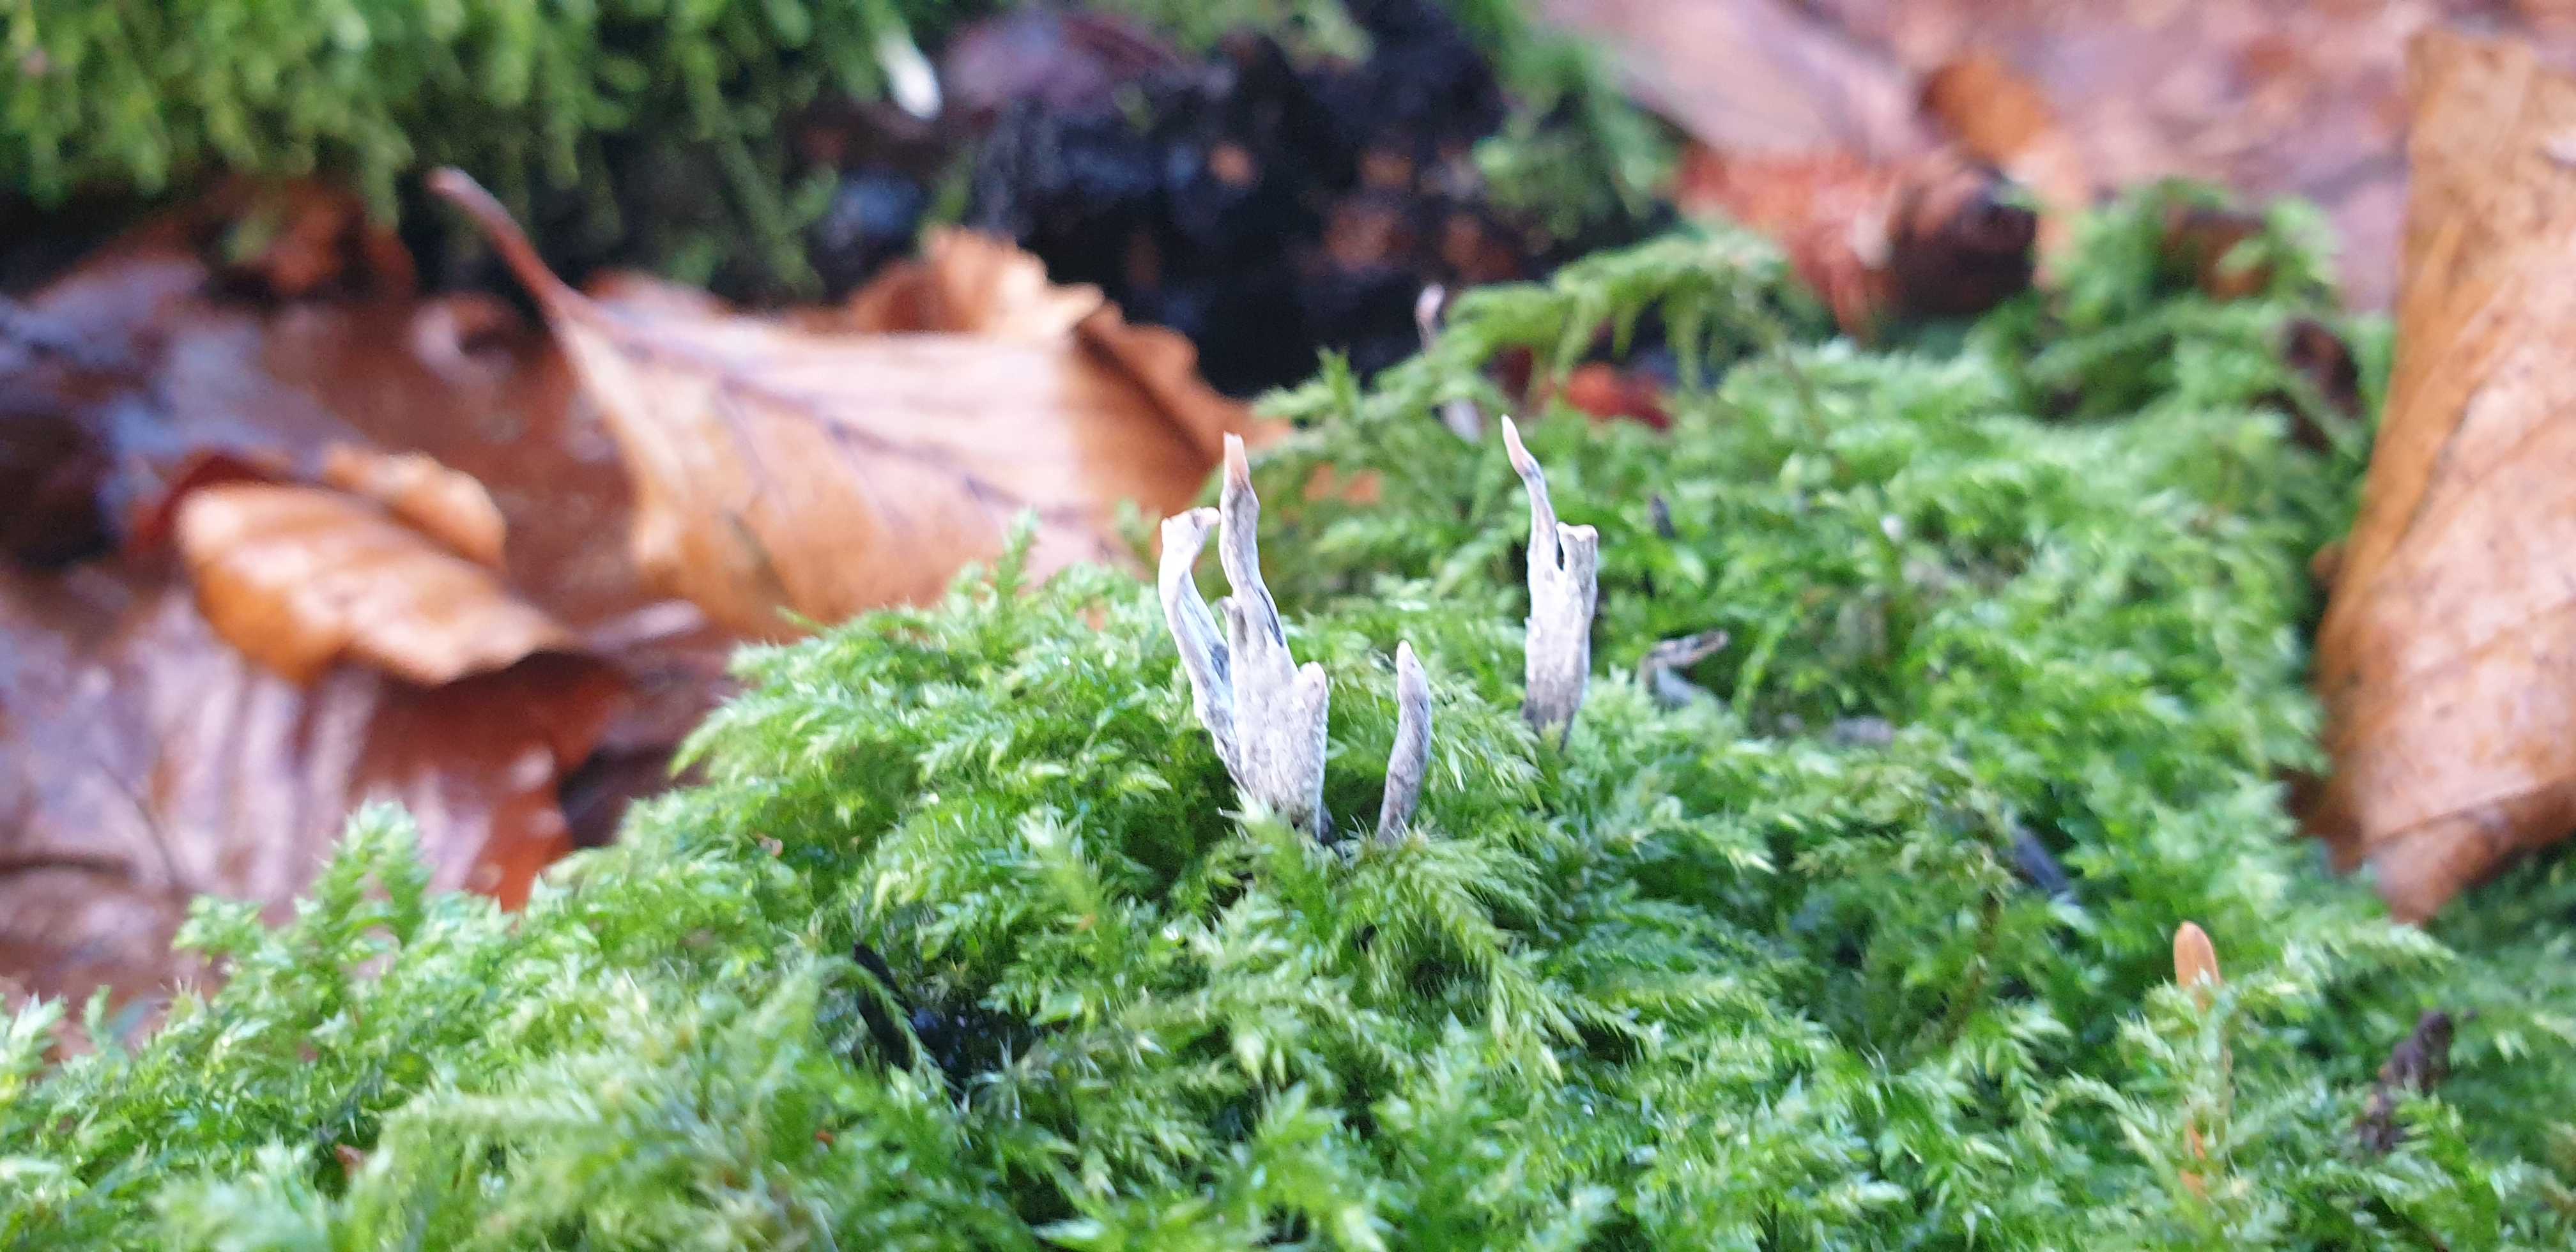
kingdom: Fungi
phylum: Ascomycota
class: Sordariomycetes
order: Xylariales
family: Xylariaceae
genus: Xylaria
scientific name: Xylaria hypoxylon
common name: grenet stødsvamp
